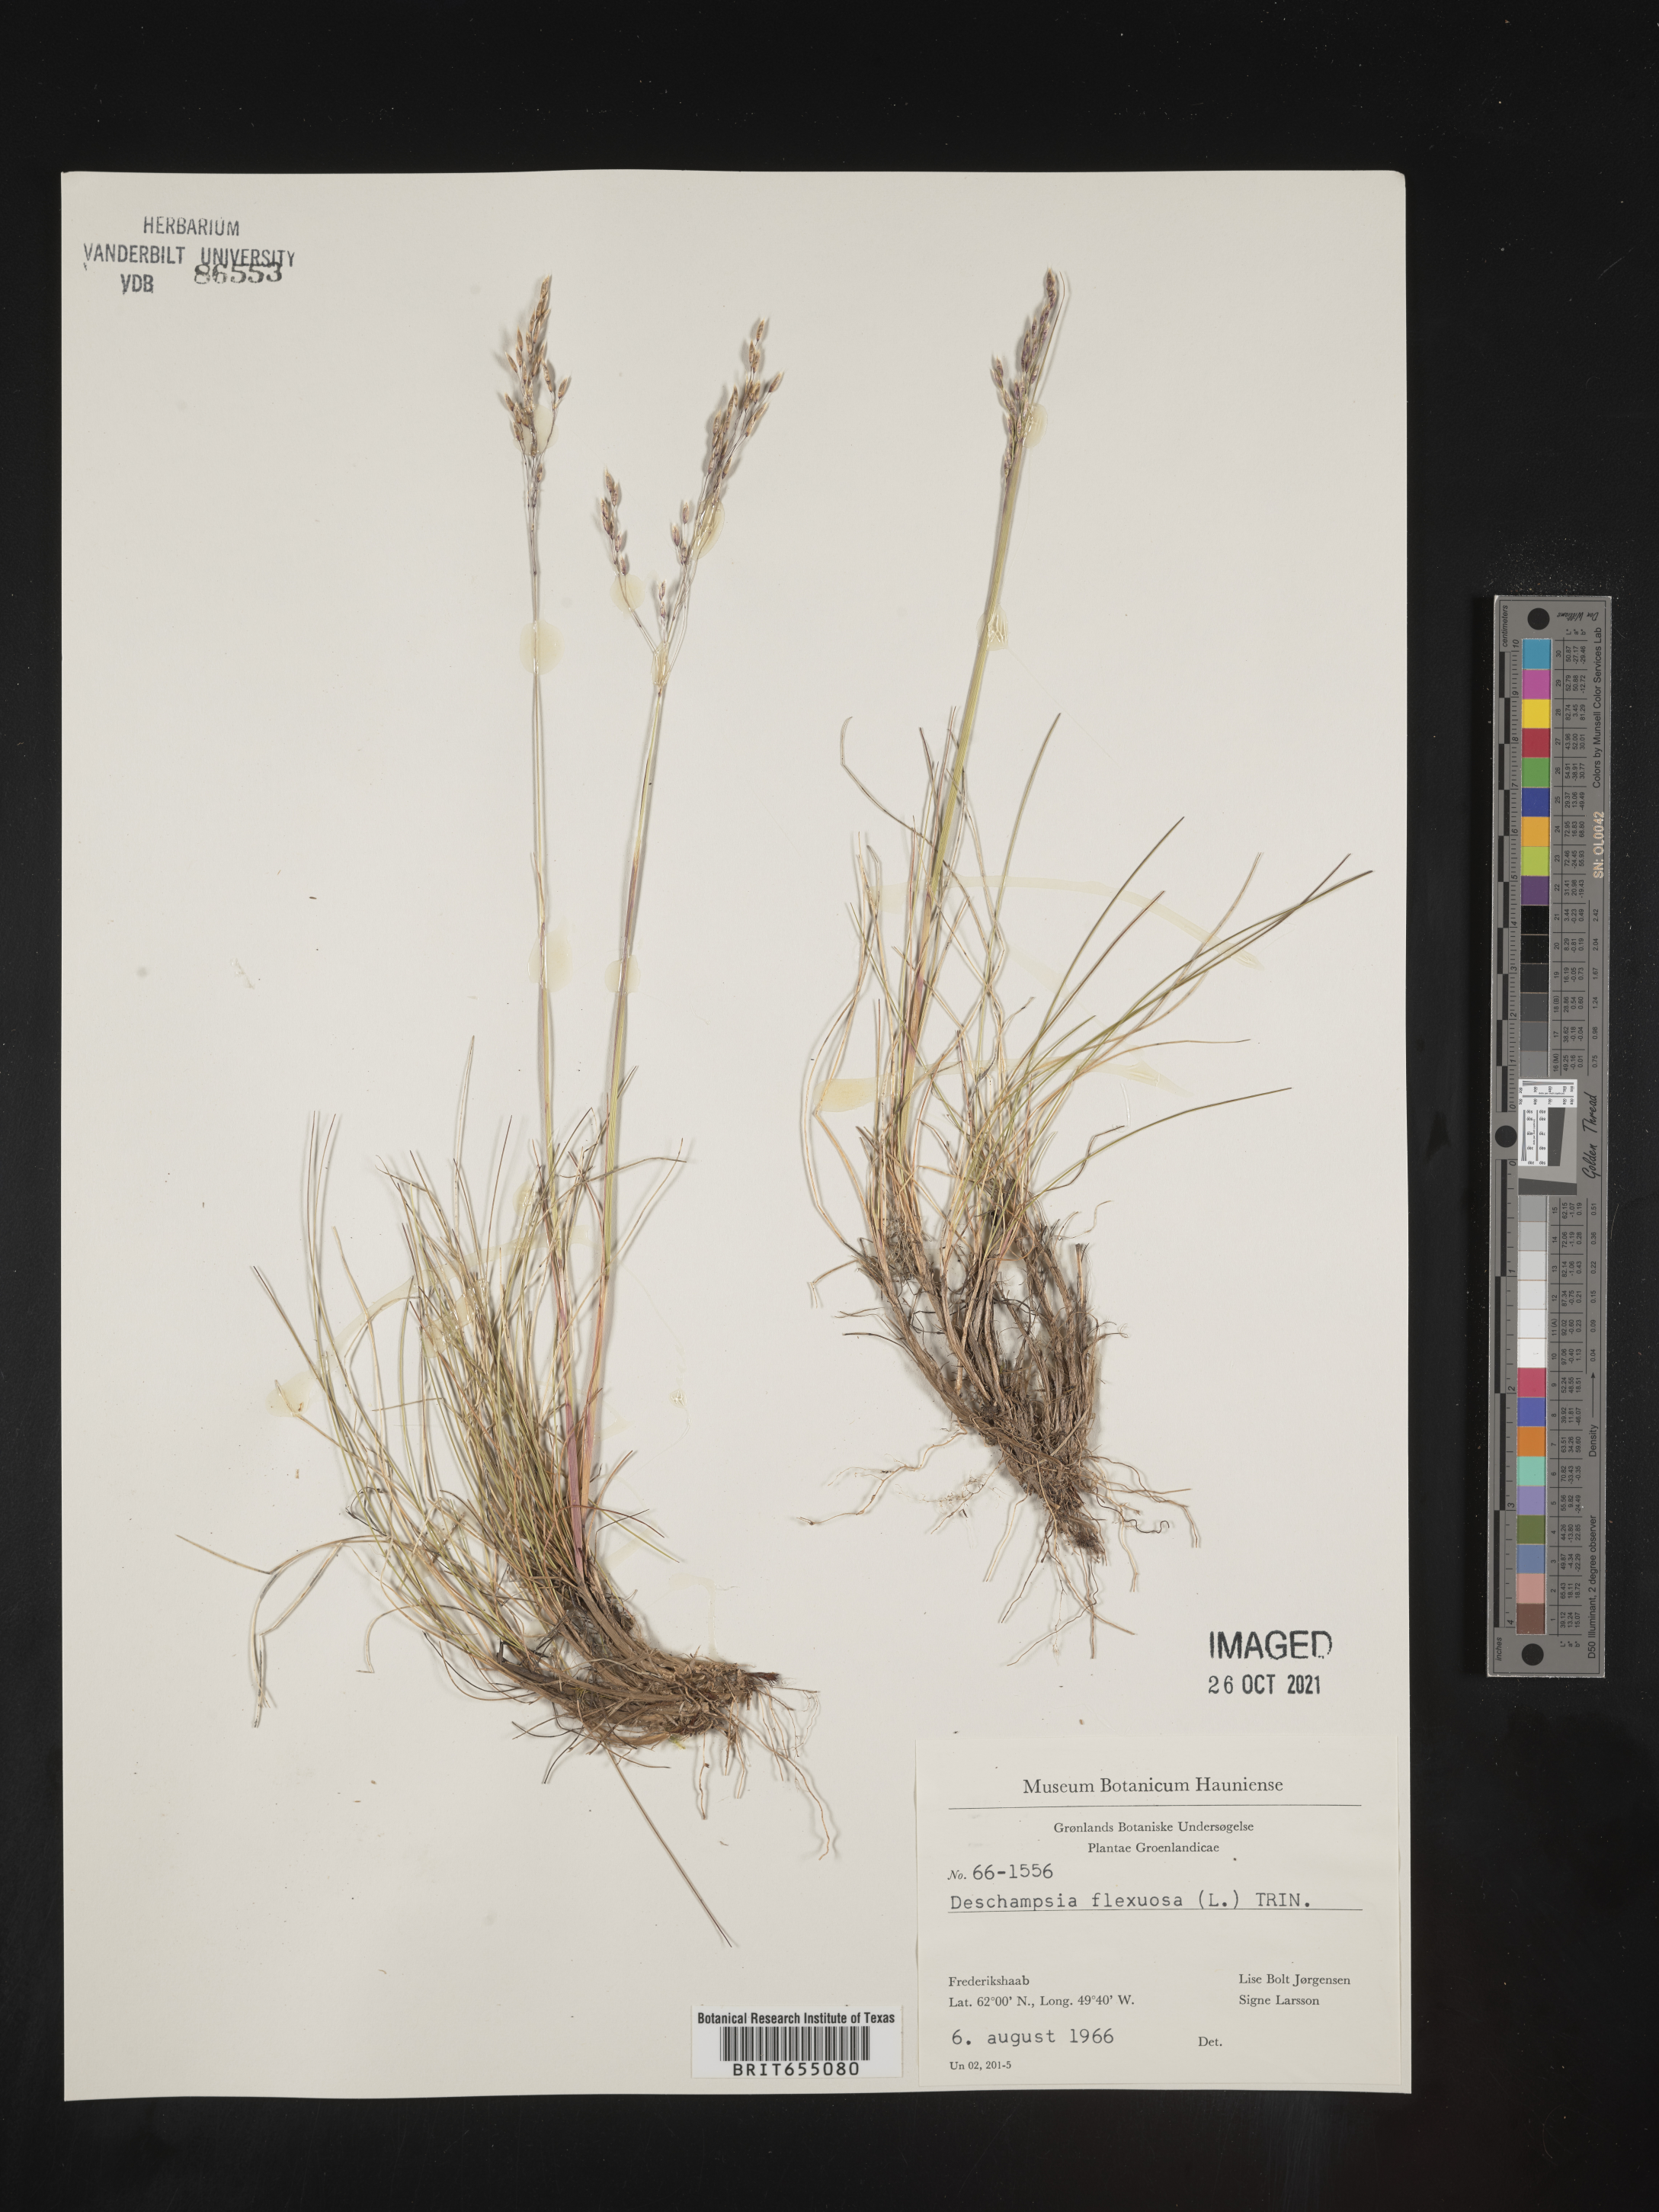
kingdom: Plantae
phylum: Tracheophyta
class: Liliopsida
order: Poales
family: Poaceae
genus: Deschampsia
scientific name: Deschampsia
